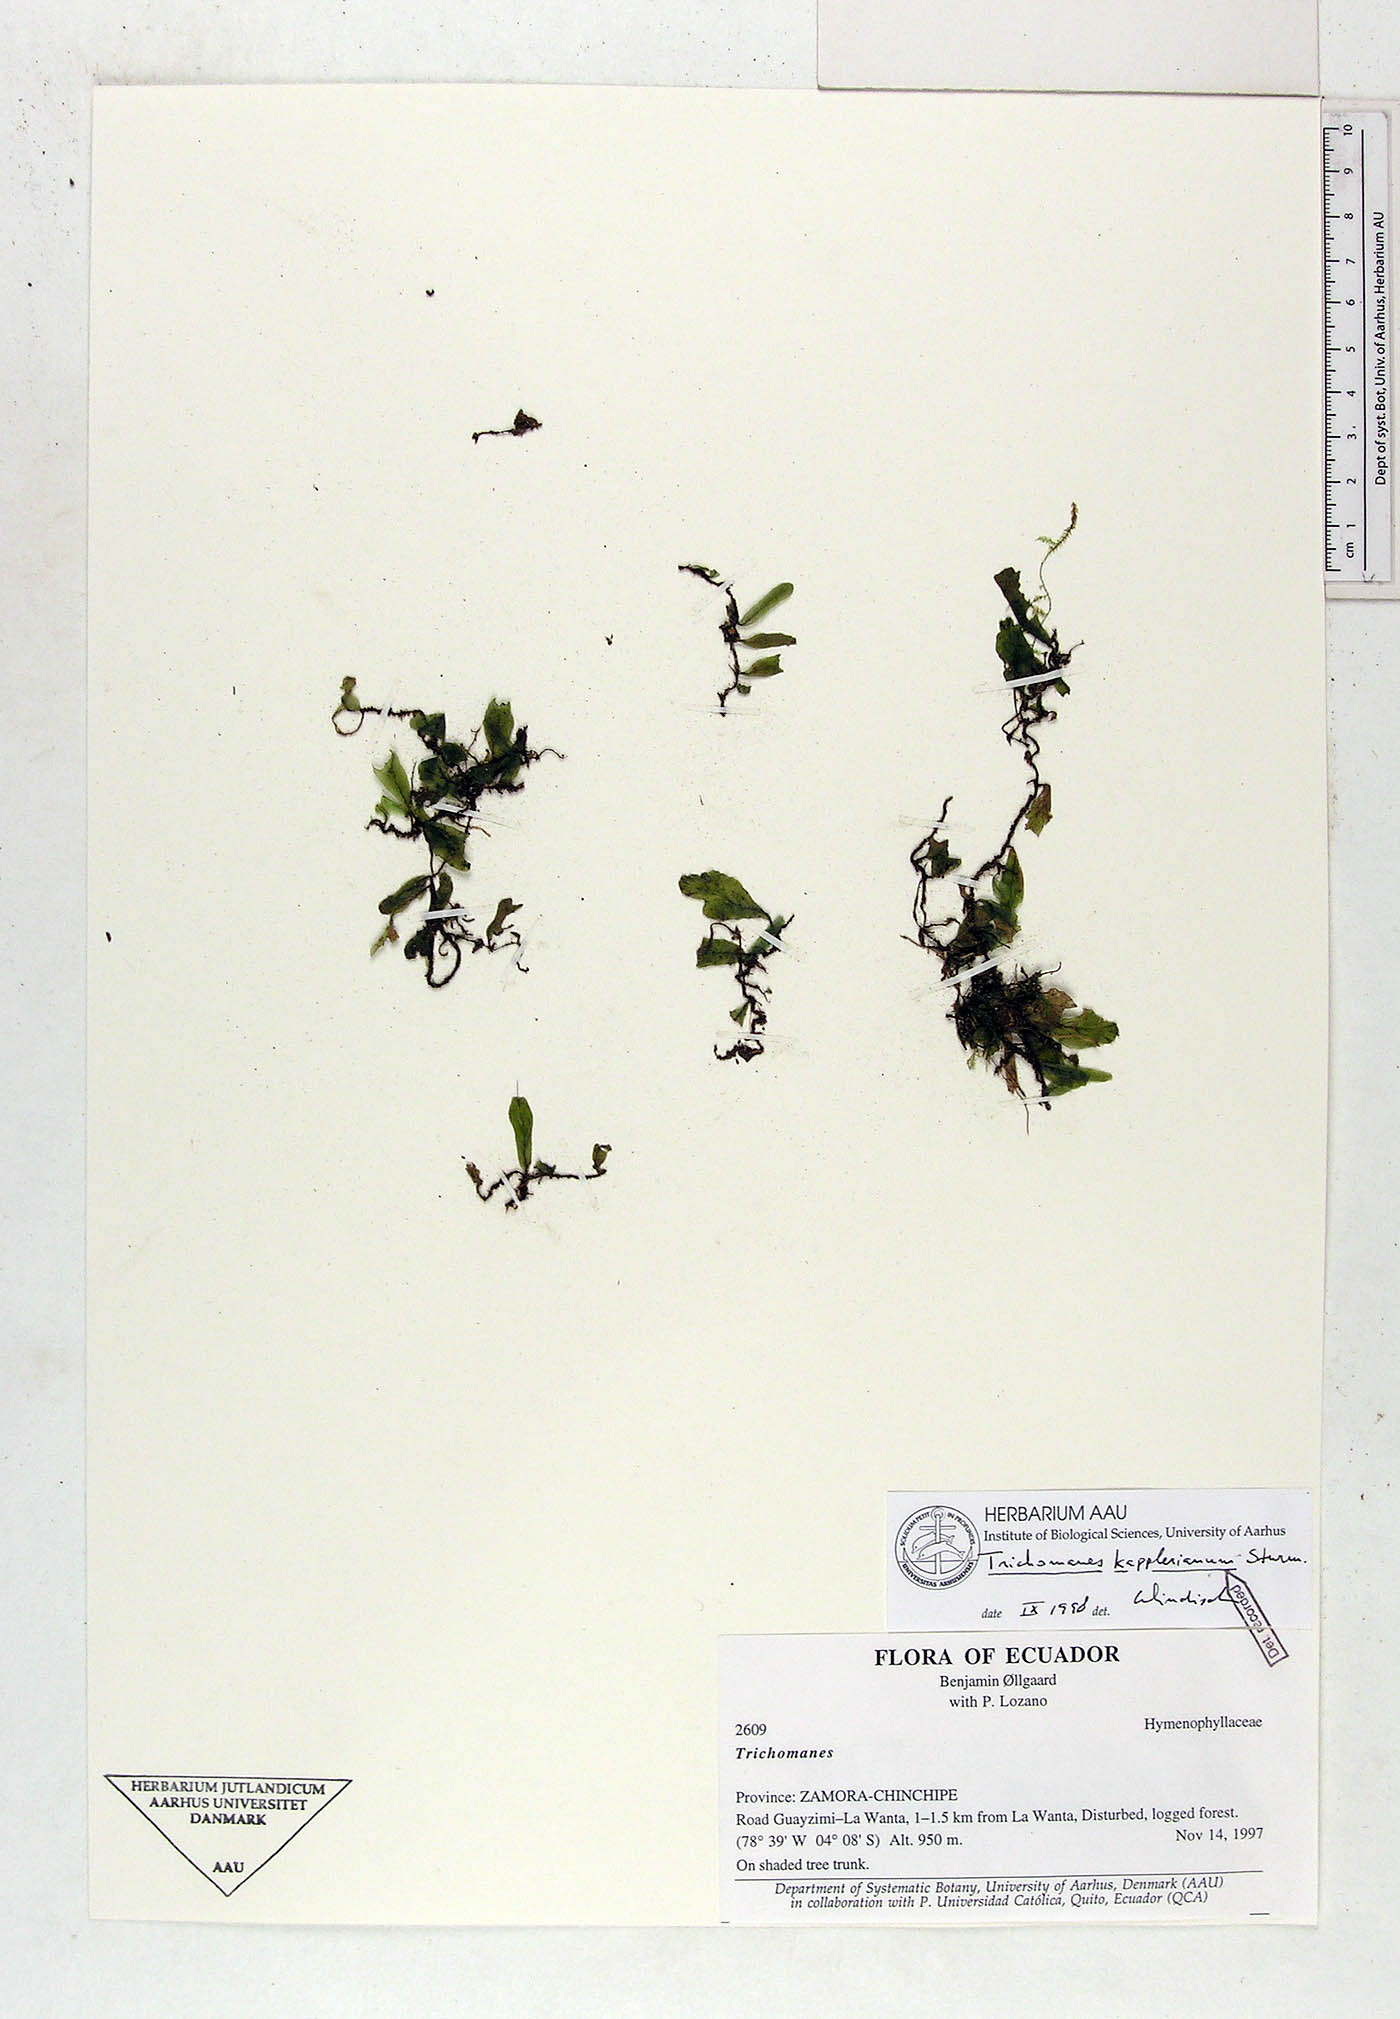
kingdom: Plantae
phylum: Tracheophyta
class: Polypodiopsida
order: Hymenophyllales
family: Hymenophyllaceae
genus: Didymoglossum
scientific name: Didymoglossum kapplerianum
